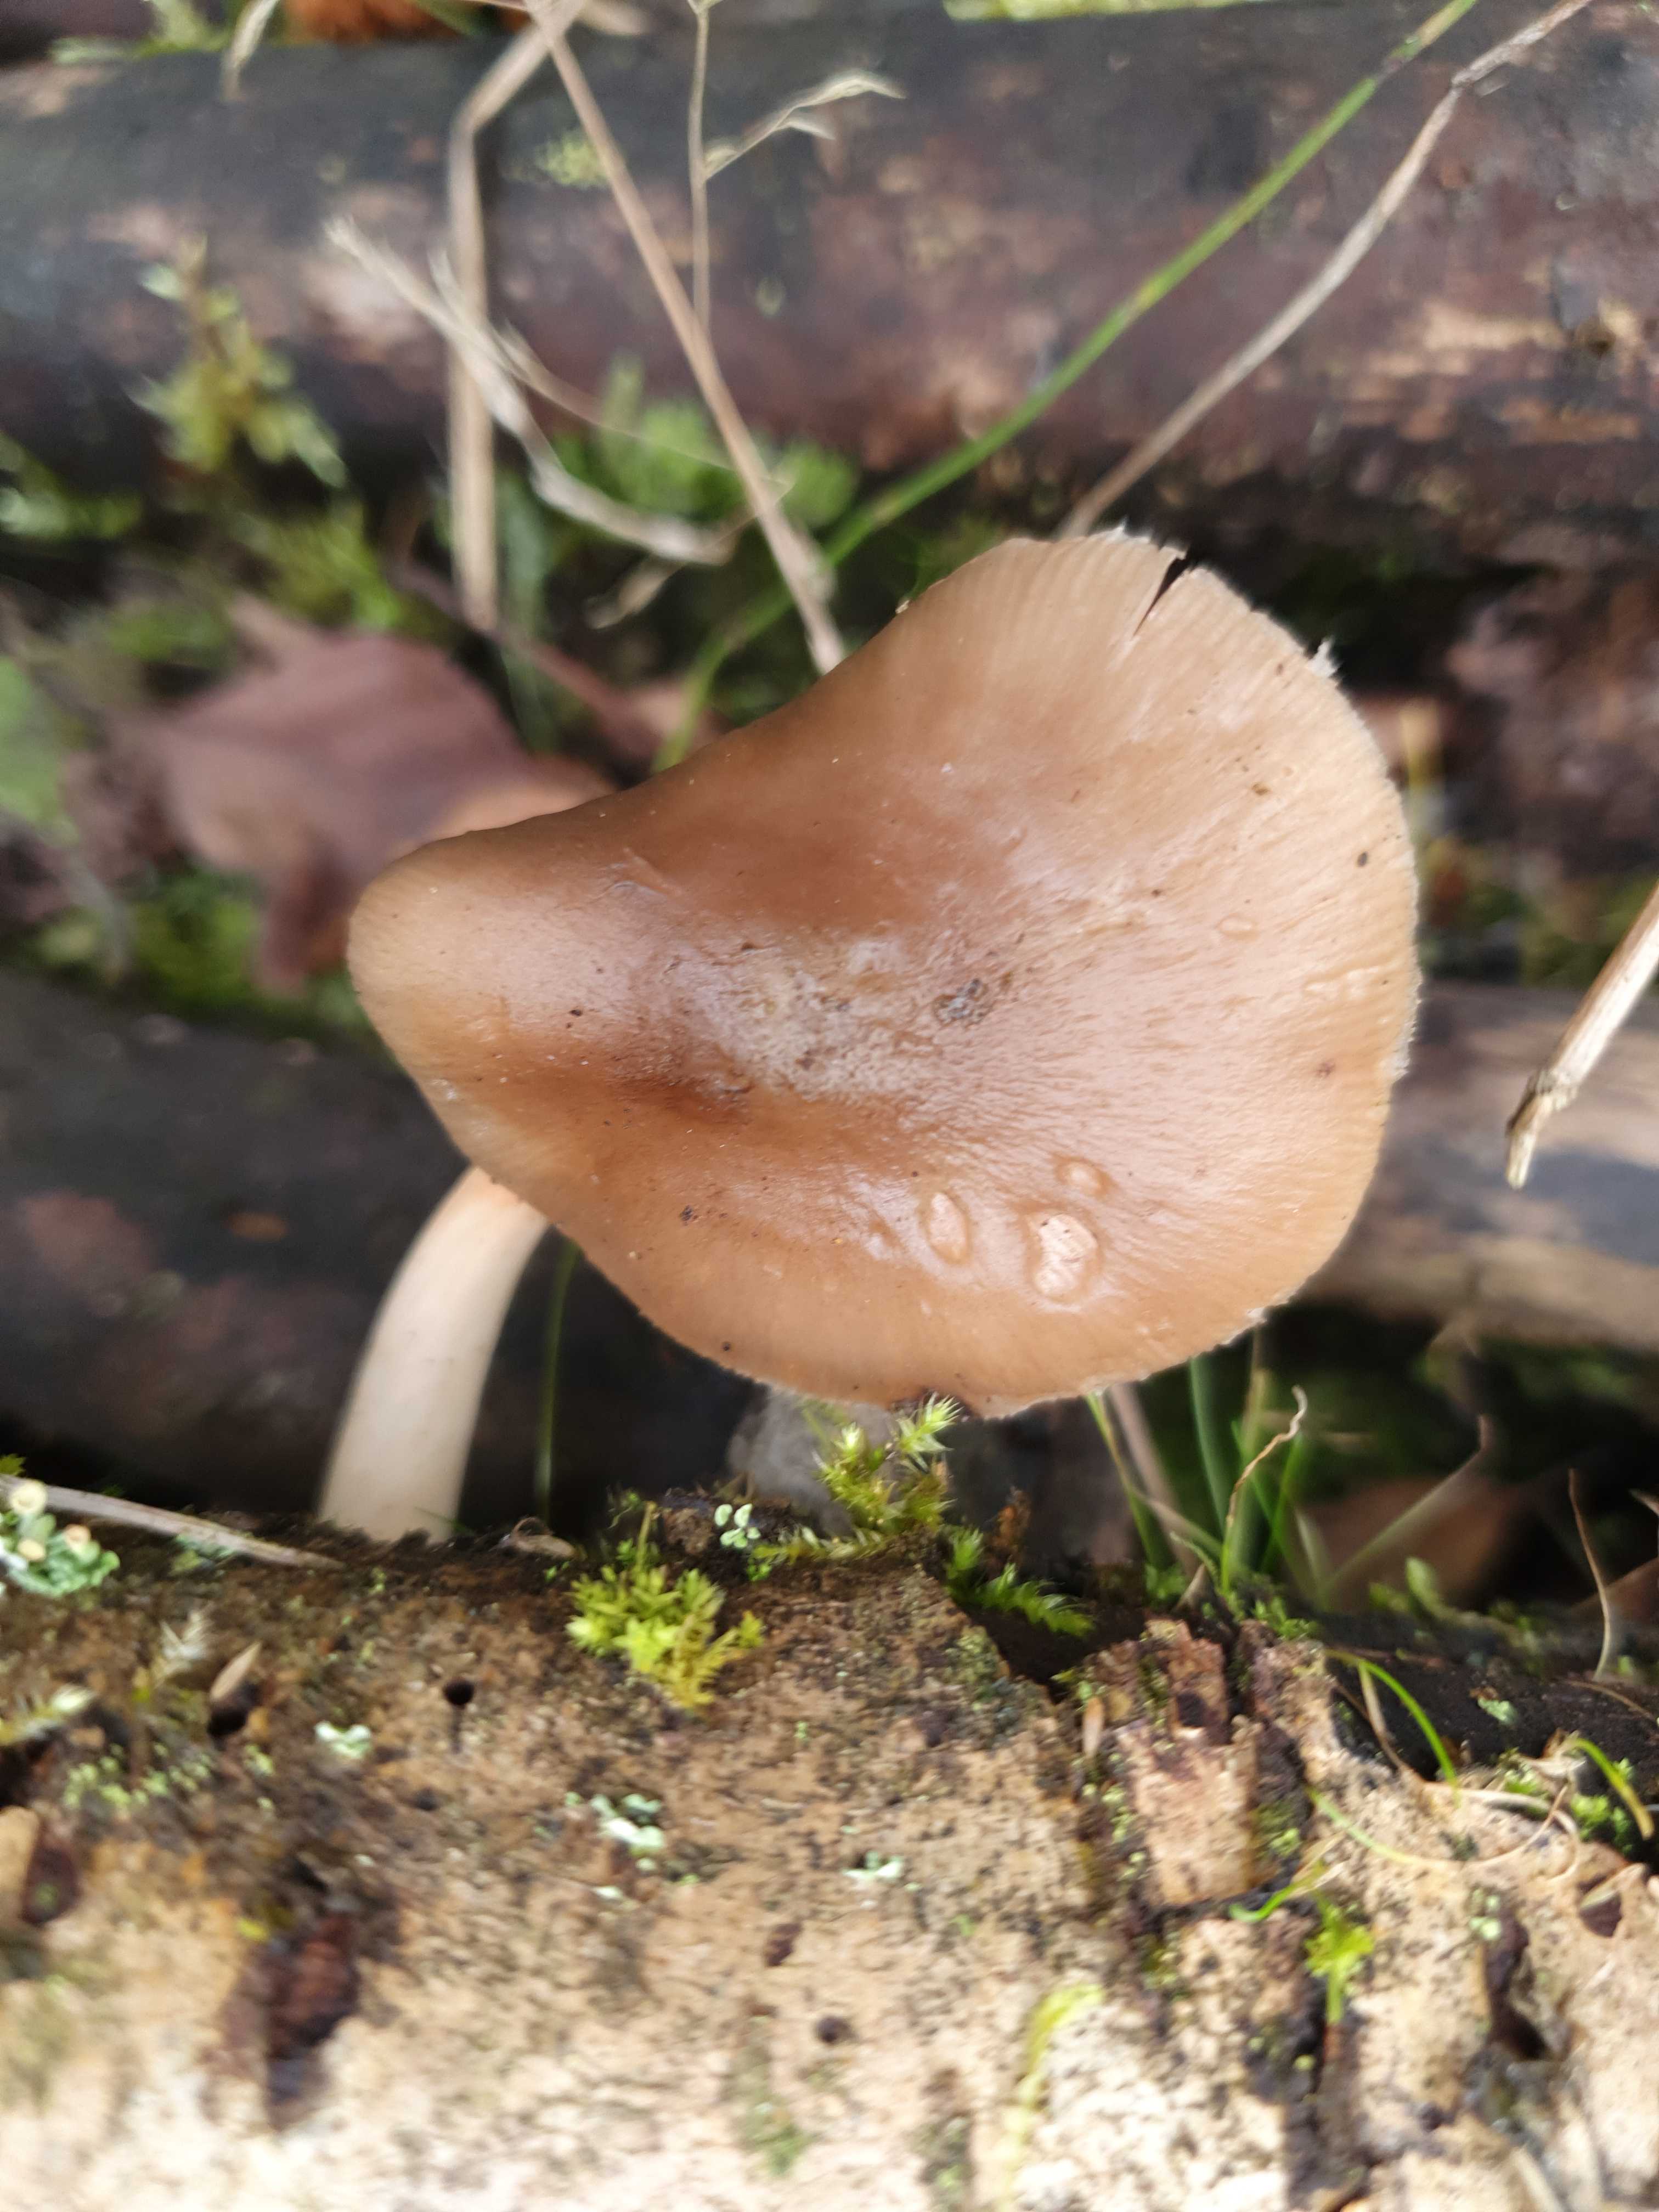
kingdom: Fungi
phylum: Basidiomycota
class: Agaricomycetes
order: Agaricales
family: Pluteaceae
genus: Pluteus
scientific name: Pluteus phlebophorus
